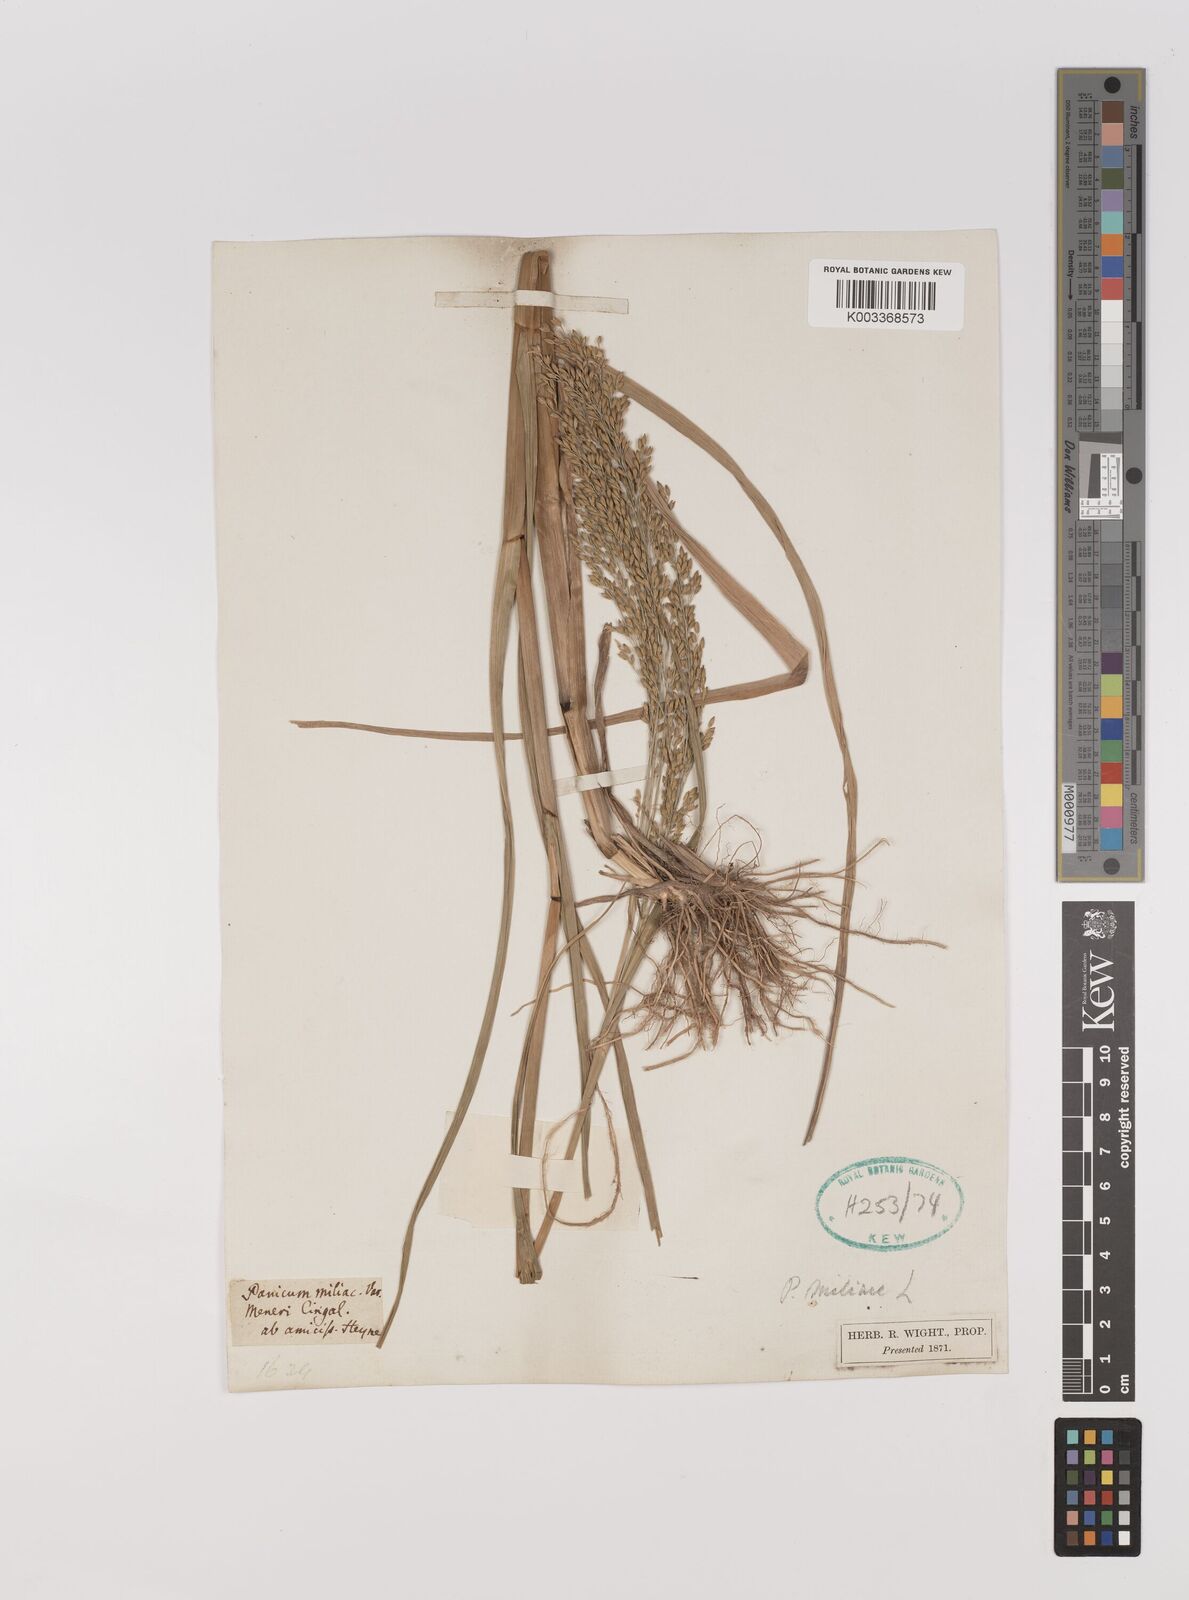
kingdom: Plantae
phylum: Tracheophyta
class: Liliopsida
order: Poales
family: Poaceae
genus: Panicum
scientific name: Panicum sumatrense
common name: Little millet
